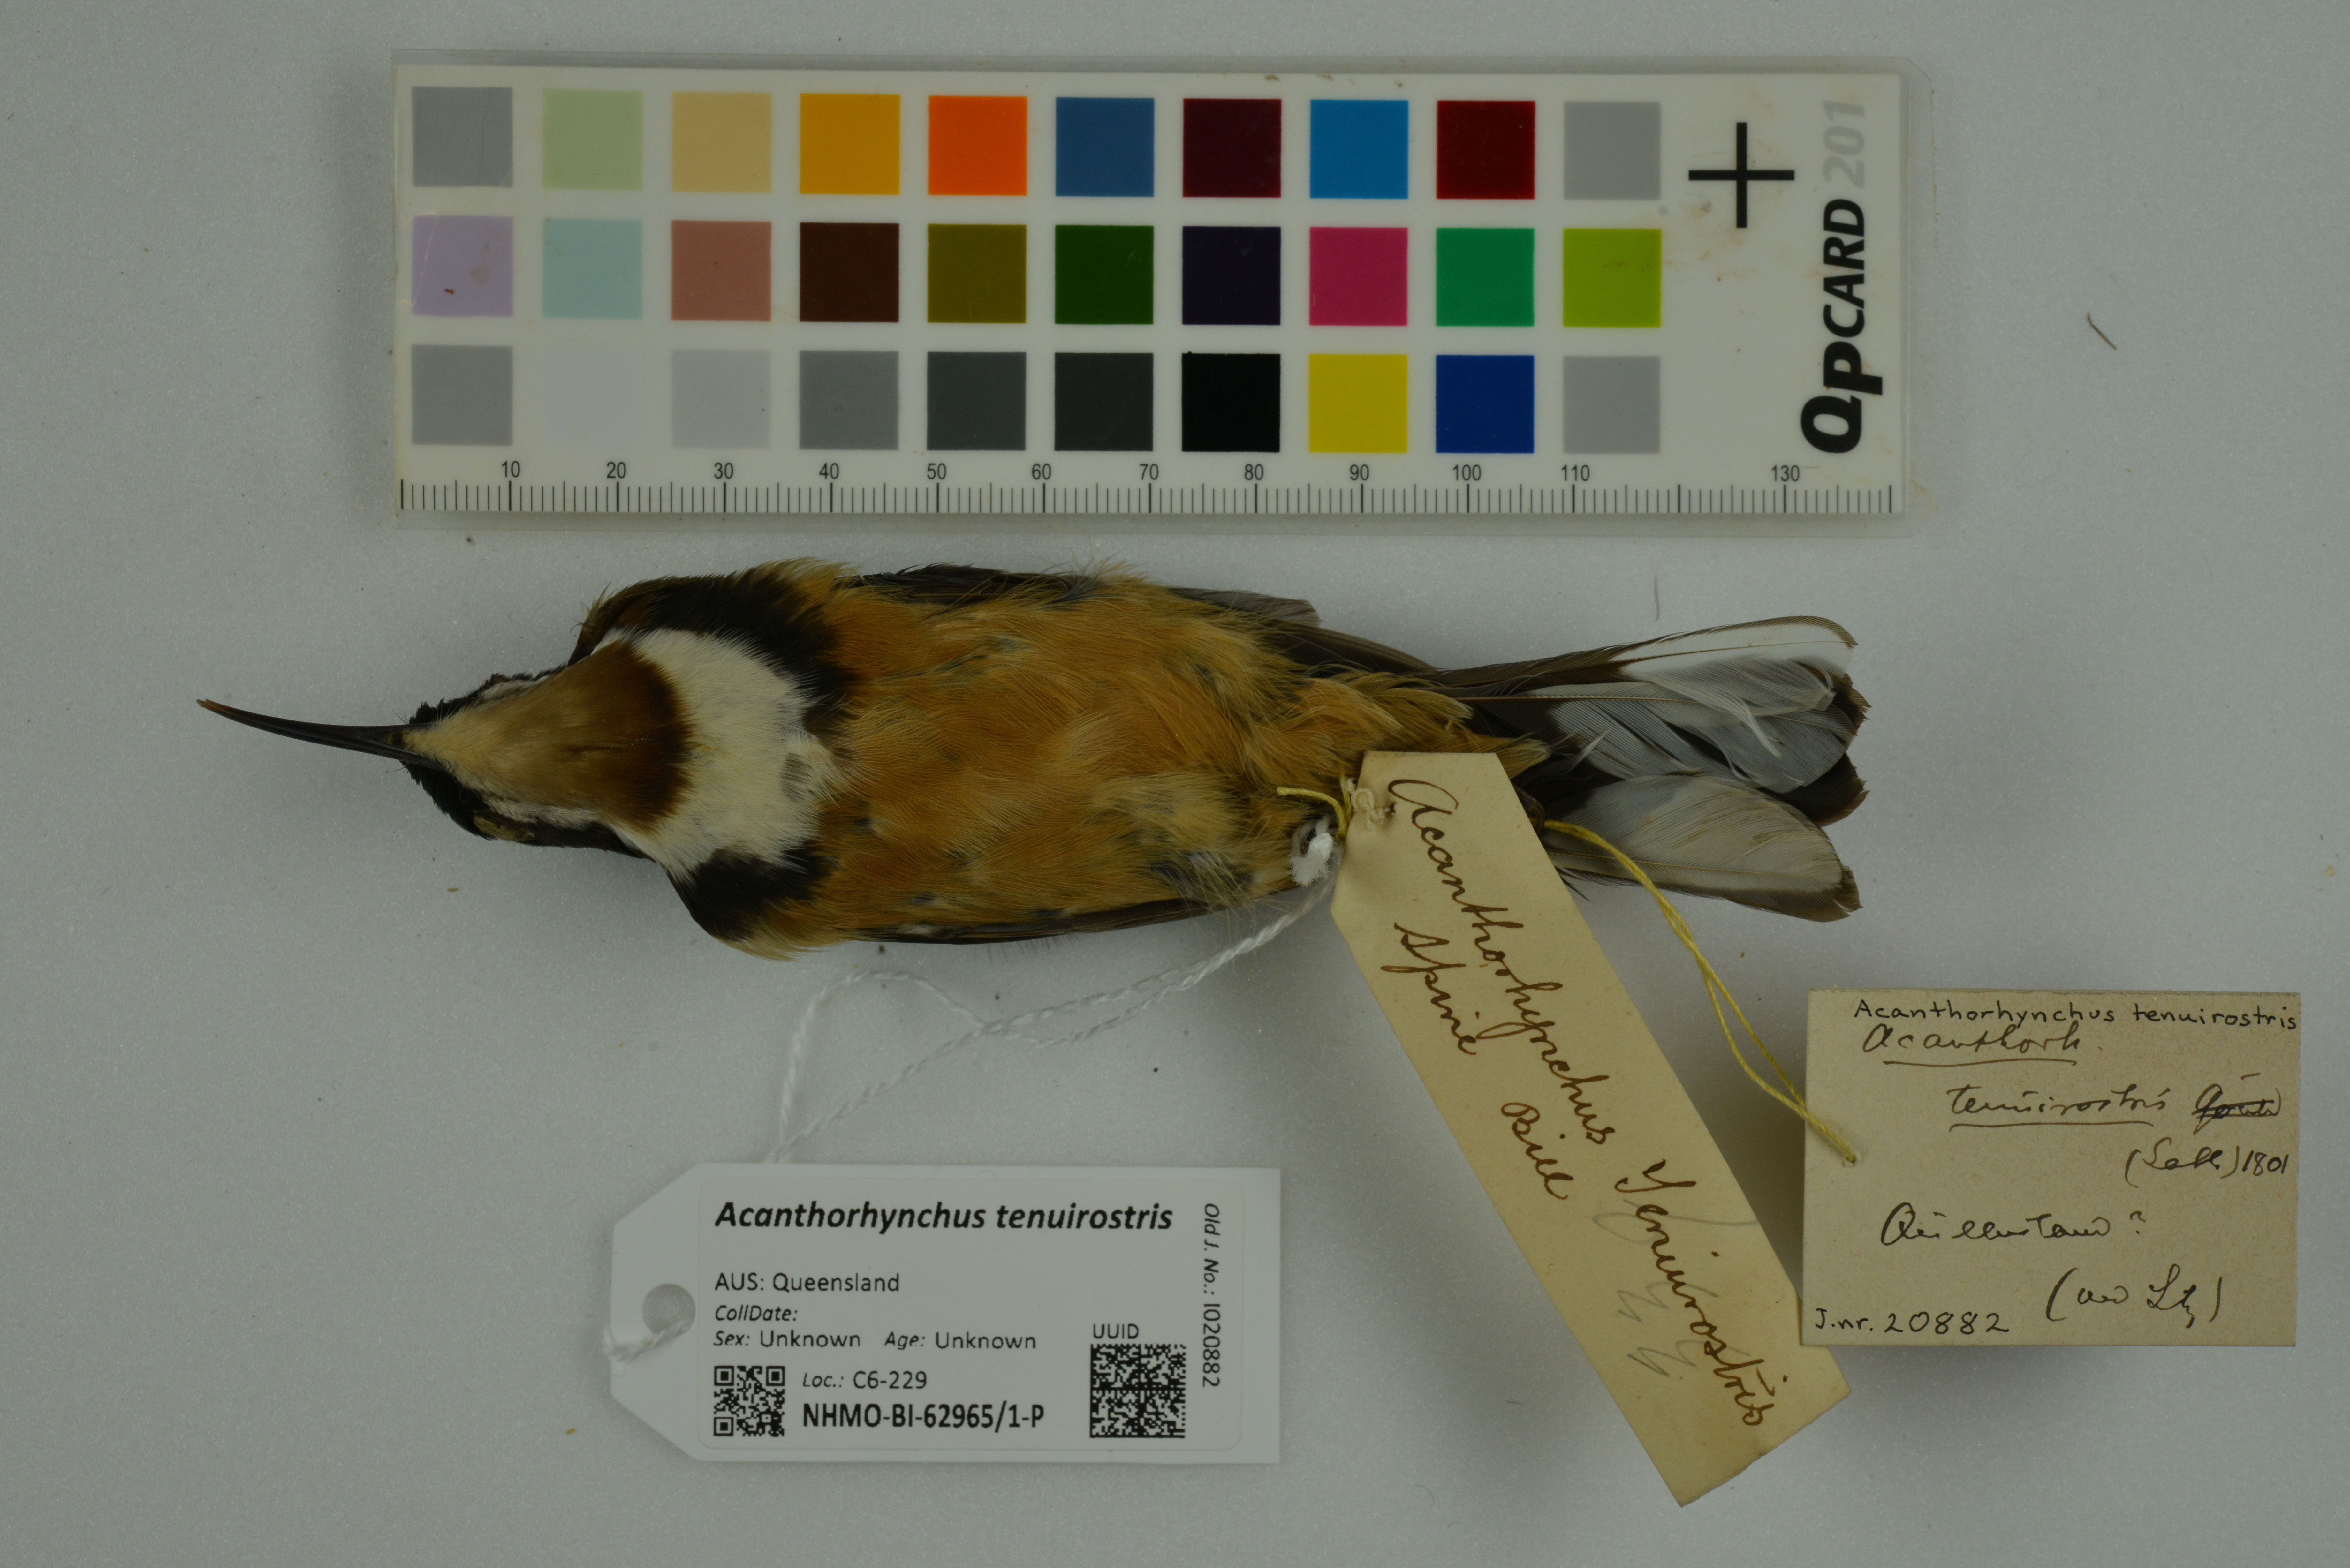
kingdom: Animalia
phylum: Chordata
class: Aves
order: Passeriformes
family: Meliphagidae
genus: Acanthorhynchus
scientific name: Acanthorhynchus tenuirostris
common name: Eastern spinebill
